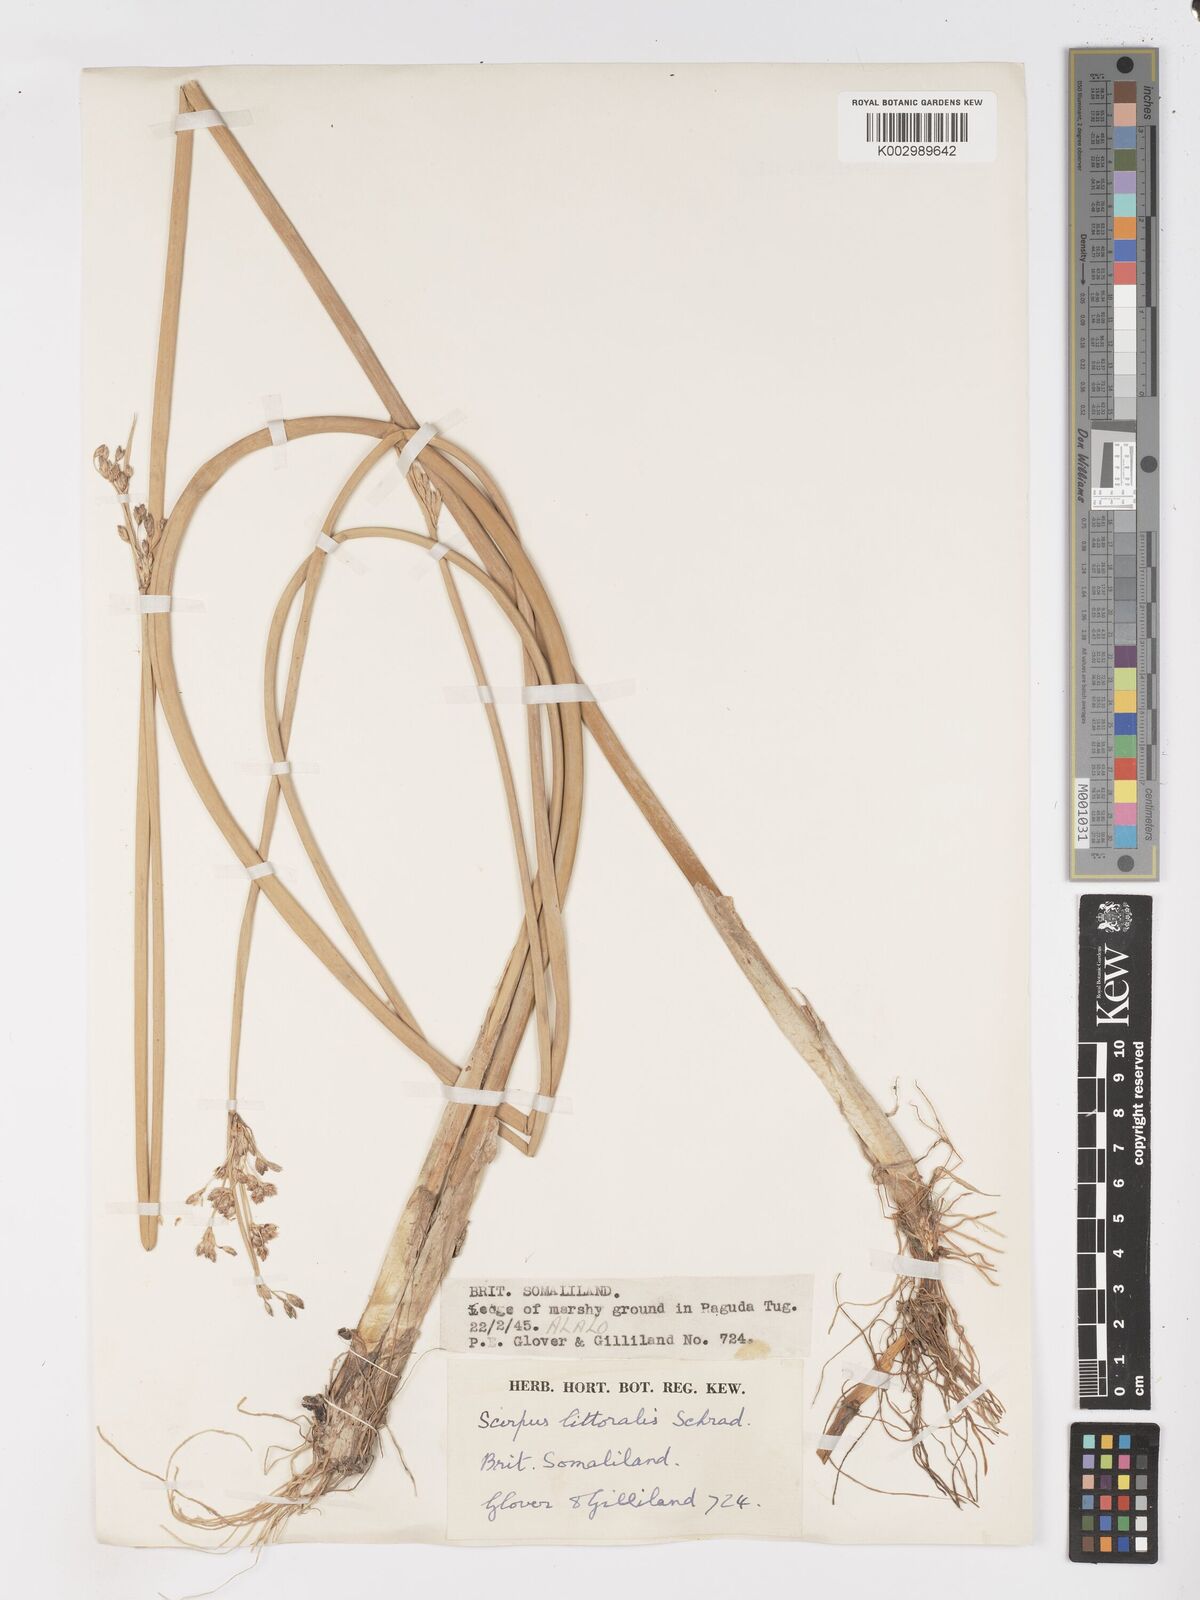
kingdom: Plantae
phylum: Tracheophyta
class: Liliopsida
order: Poales
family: Cyperaceae
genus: Schoenoplectus
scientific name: Schoenoplectus litoralis
